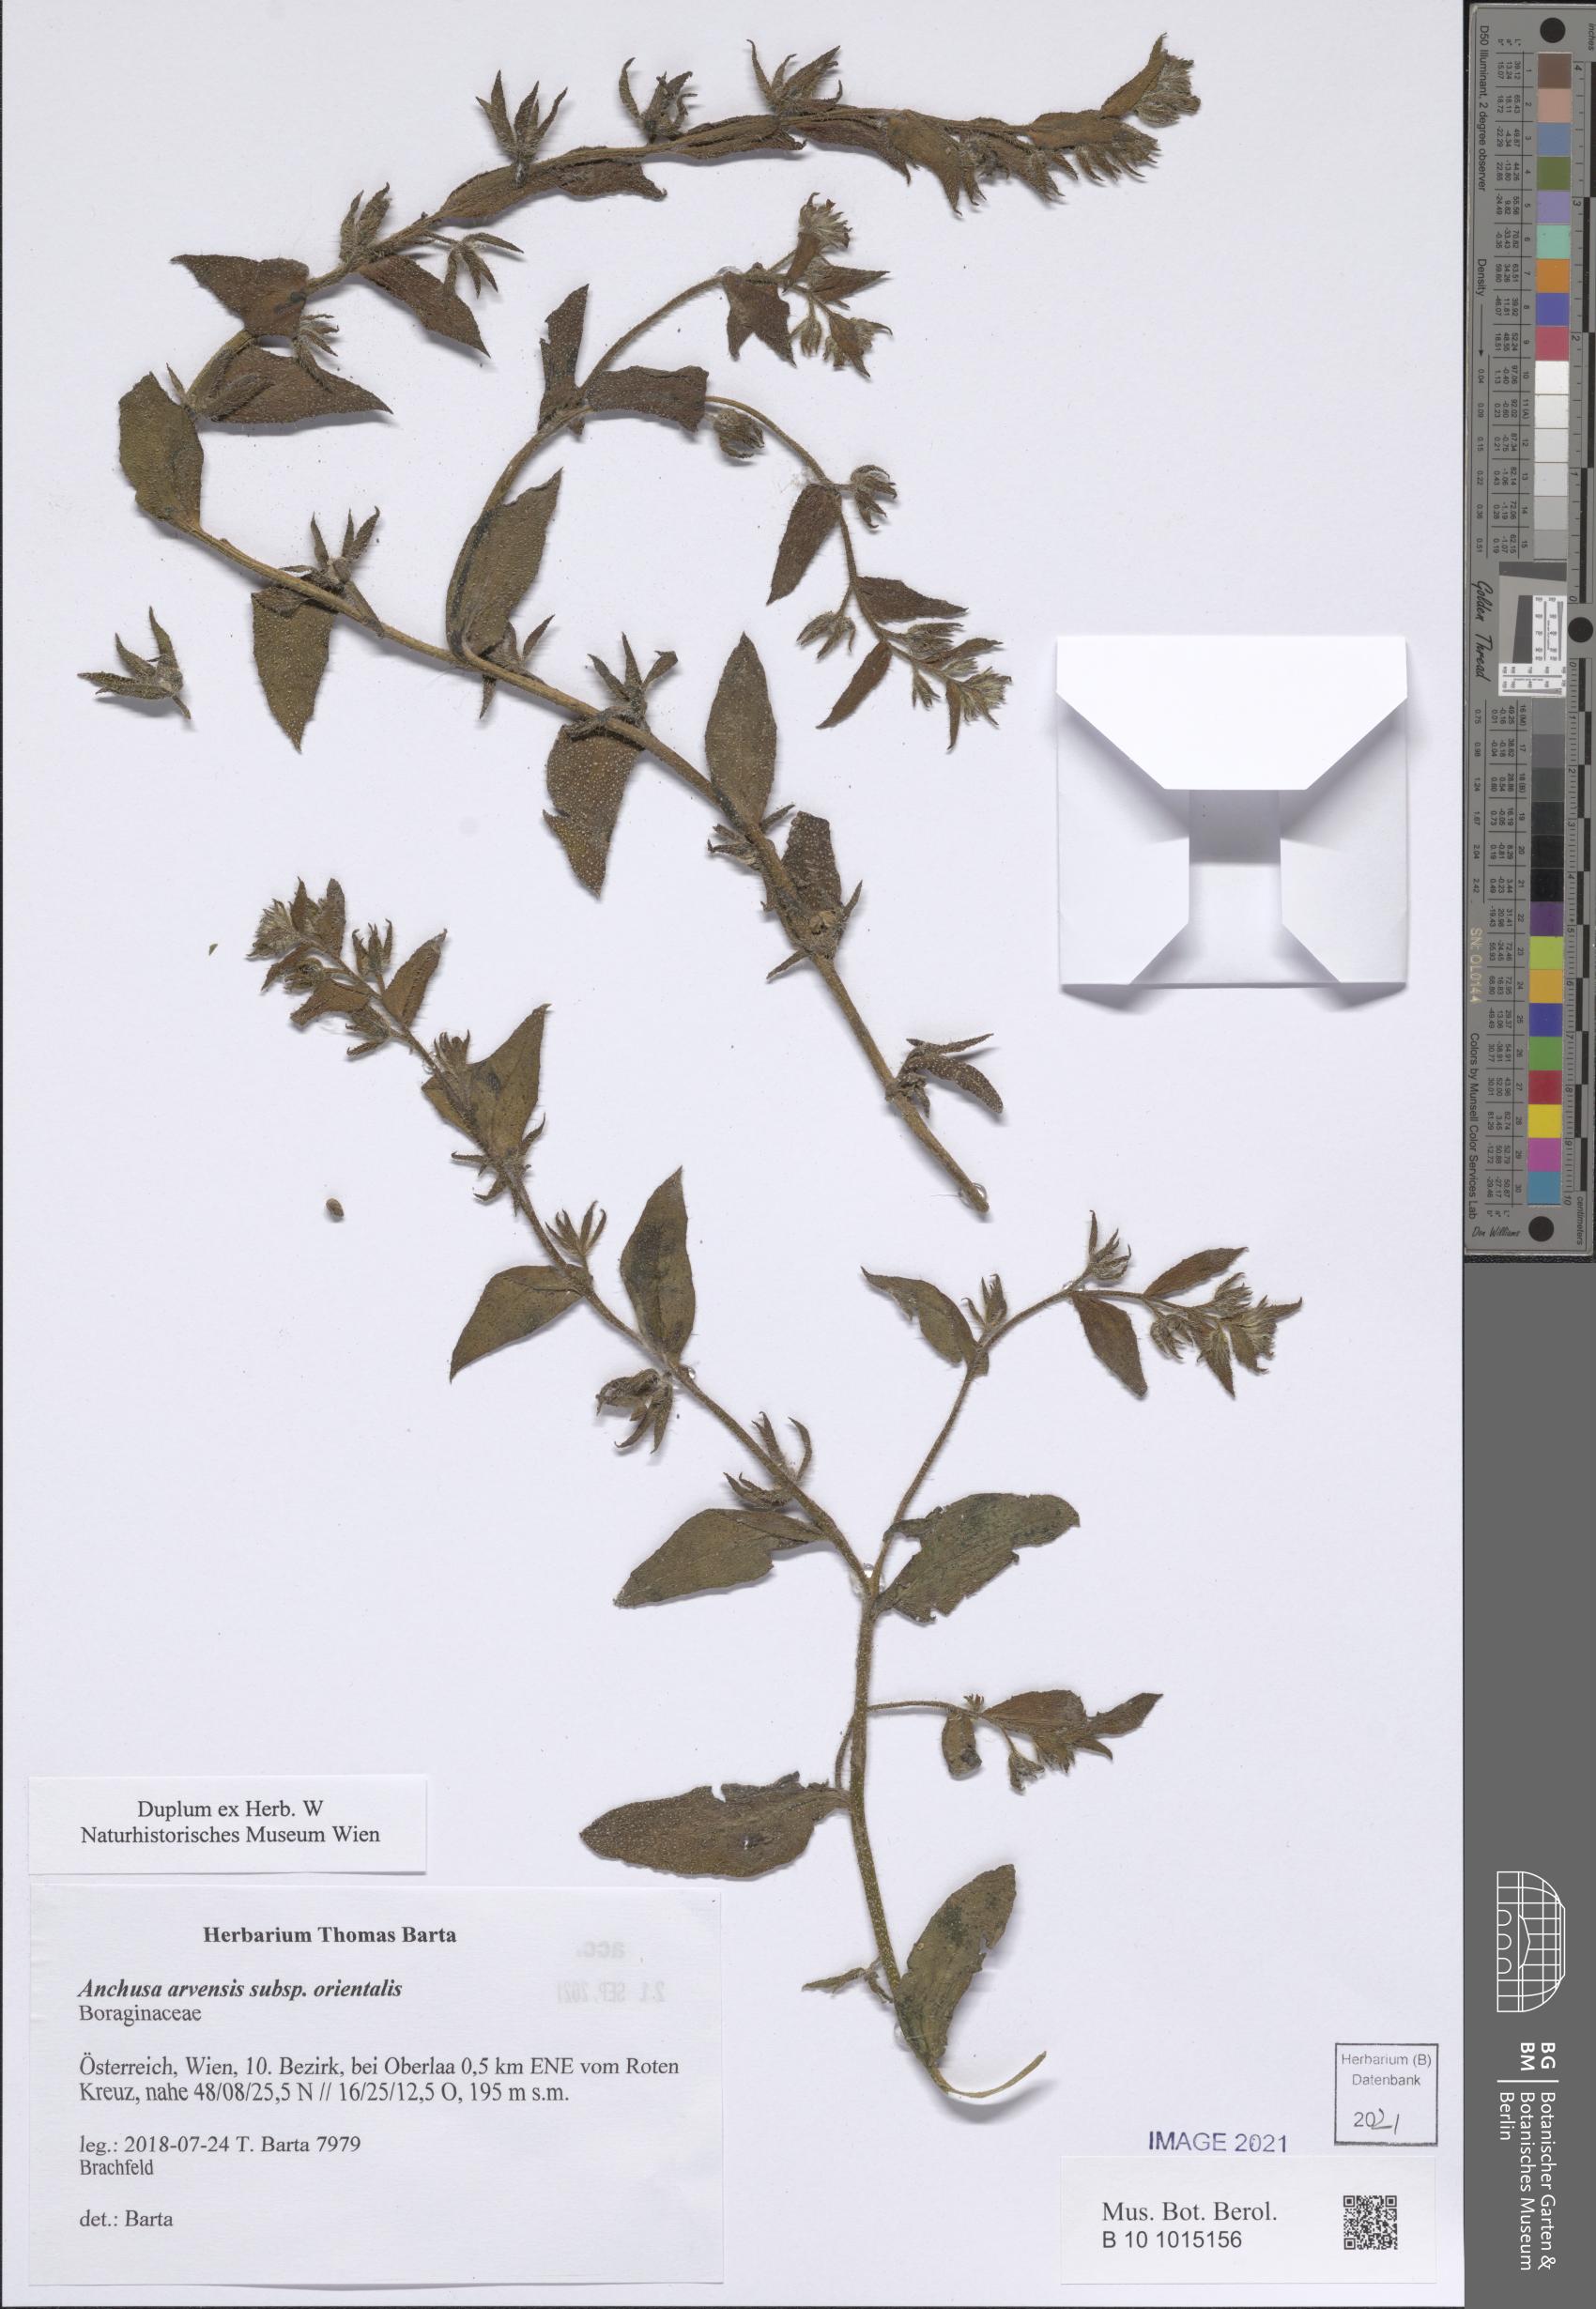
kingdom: Plantae
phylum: Tracheophyta
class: Magnoliopsida
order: Boraginales
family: Boraginaceae
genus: Lycopsis
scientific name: Lycopsis arvensis
